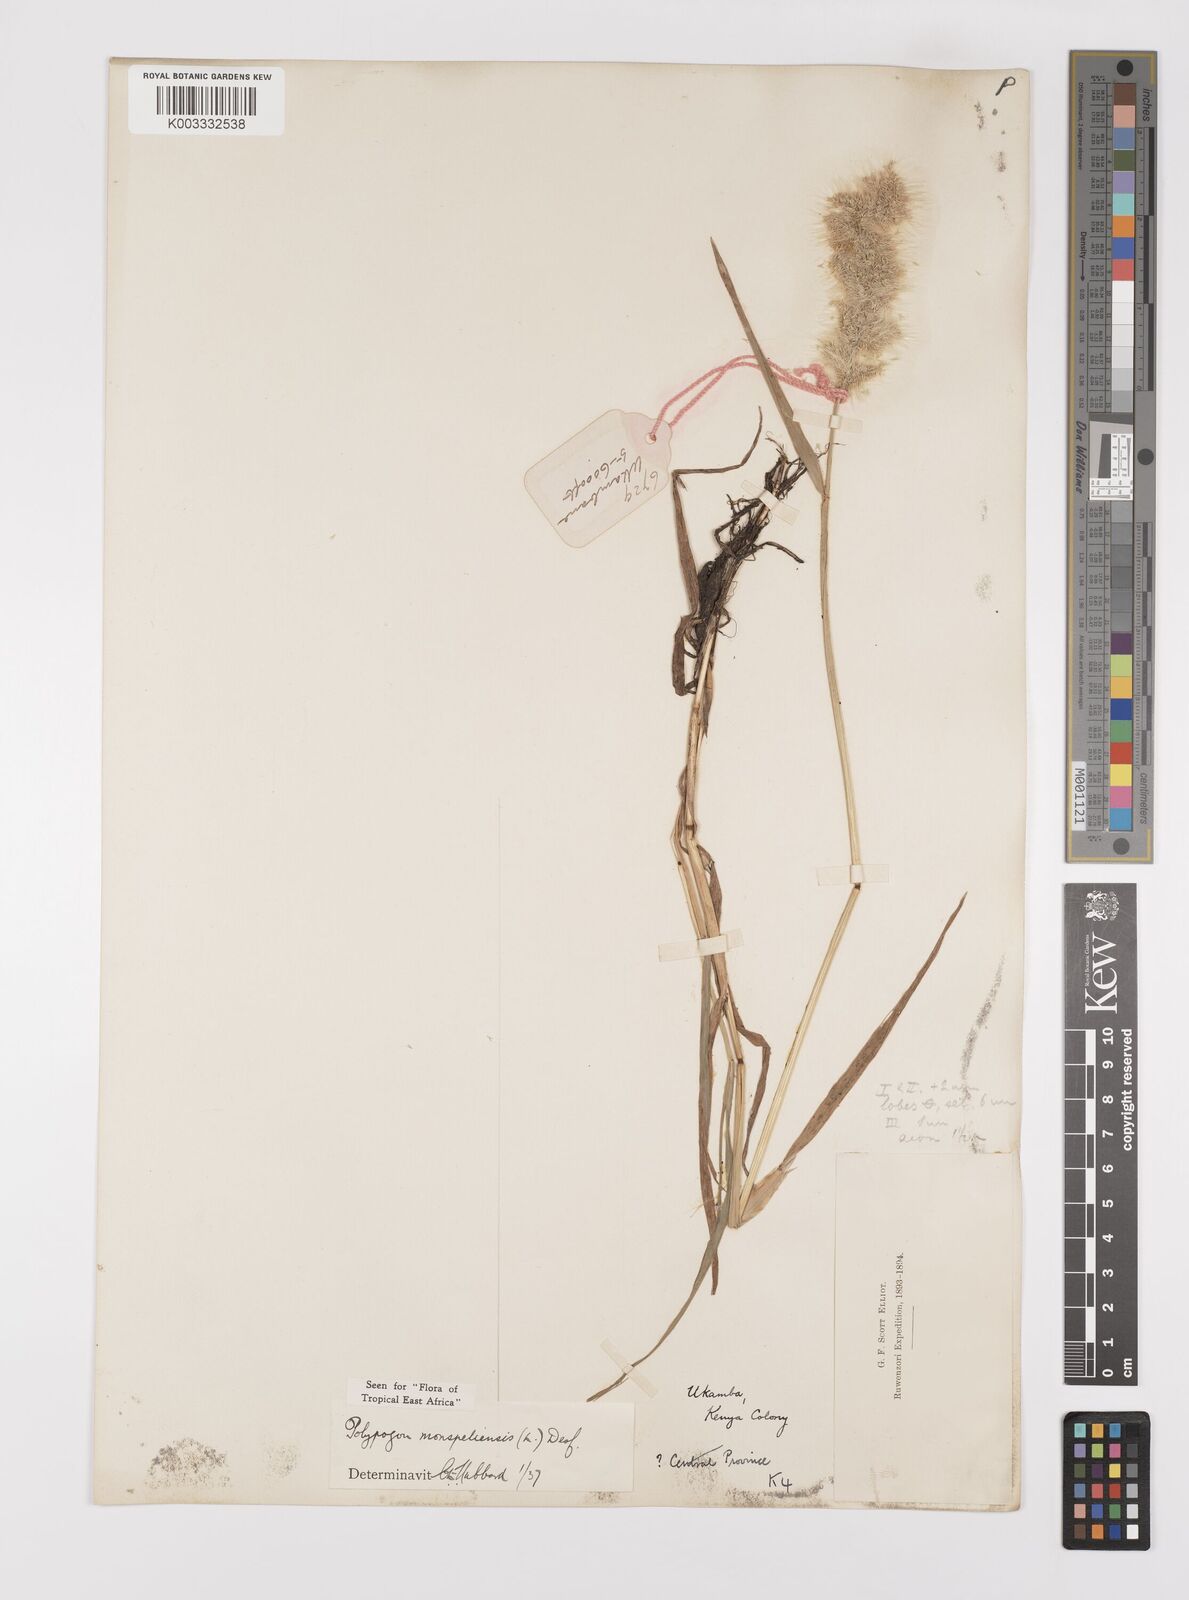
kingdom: Plantae
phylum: Tracheophyta
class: Liliopsida
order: Poales
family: Poaceae
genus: Polypogon
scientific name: Polypogon monspeliensis
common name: Annual rabbitsfoot grass
